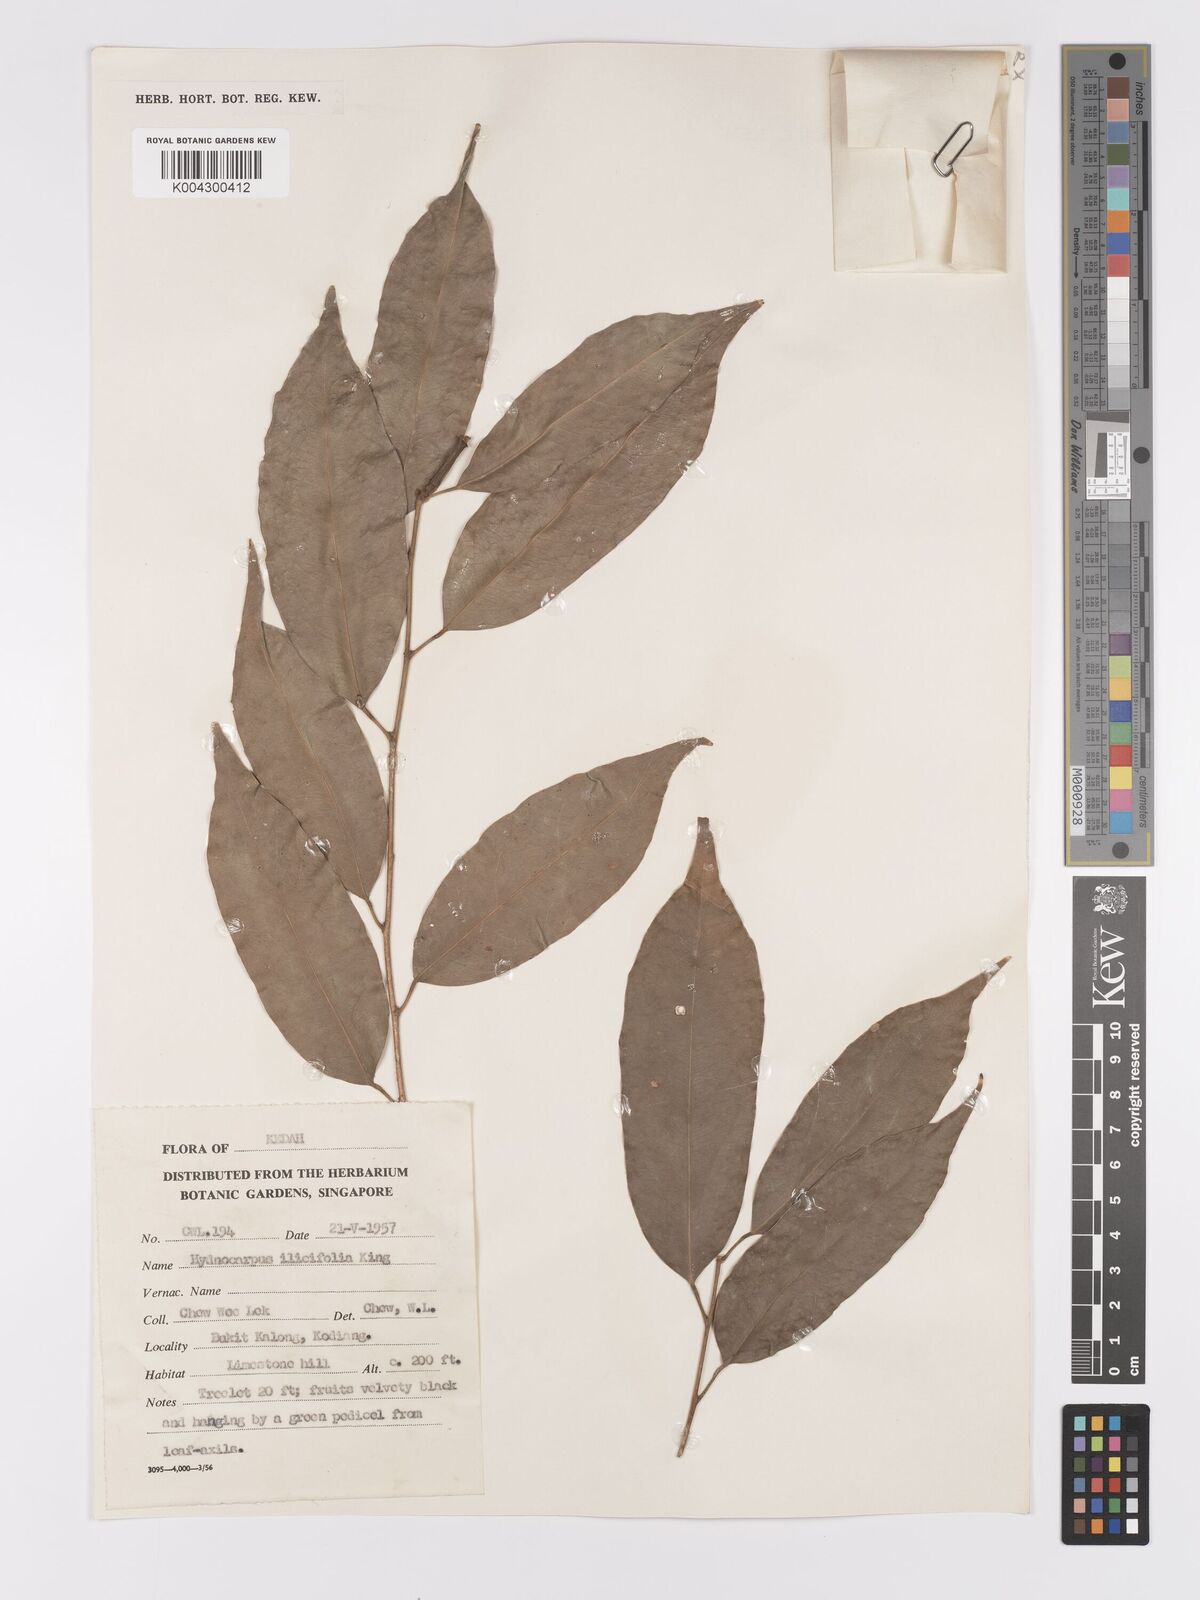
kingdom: Plantae
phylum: Tracheophyta
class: Magnoliopsida
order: Malpighiales
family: Achariaceae
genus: Hydnocarpus
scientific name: Hydnocarpus ilicifolius
